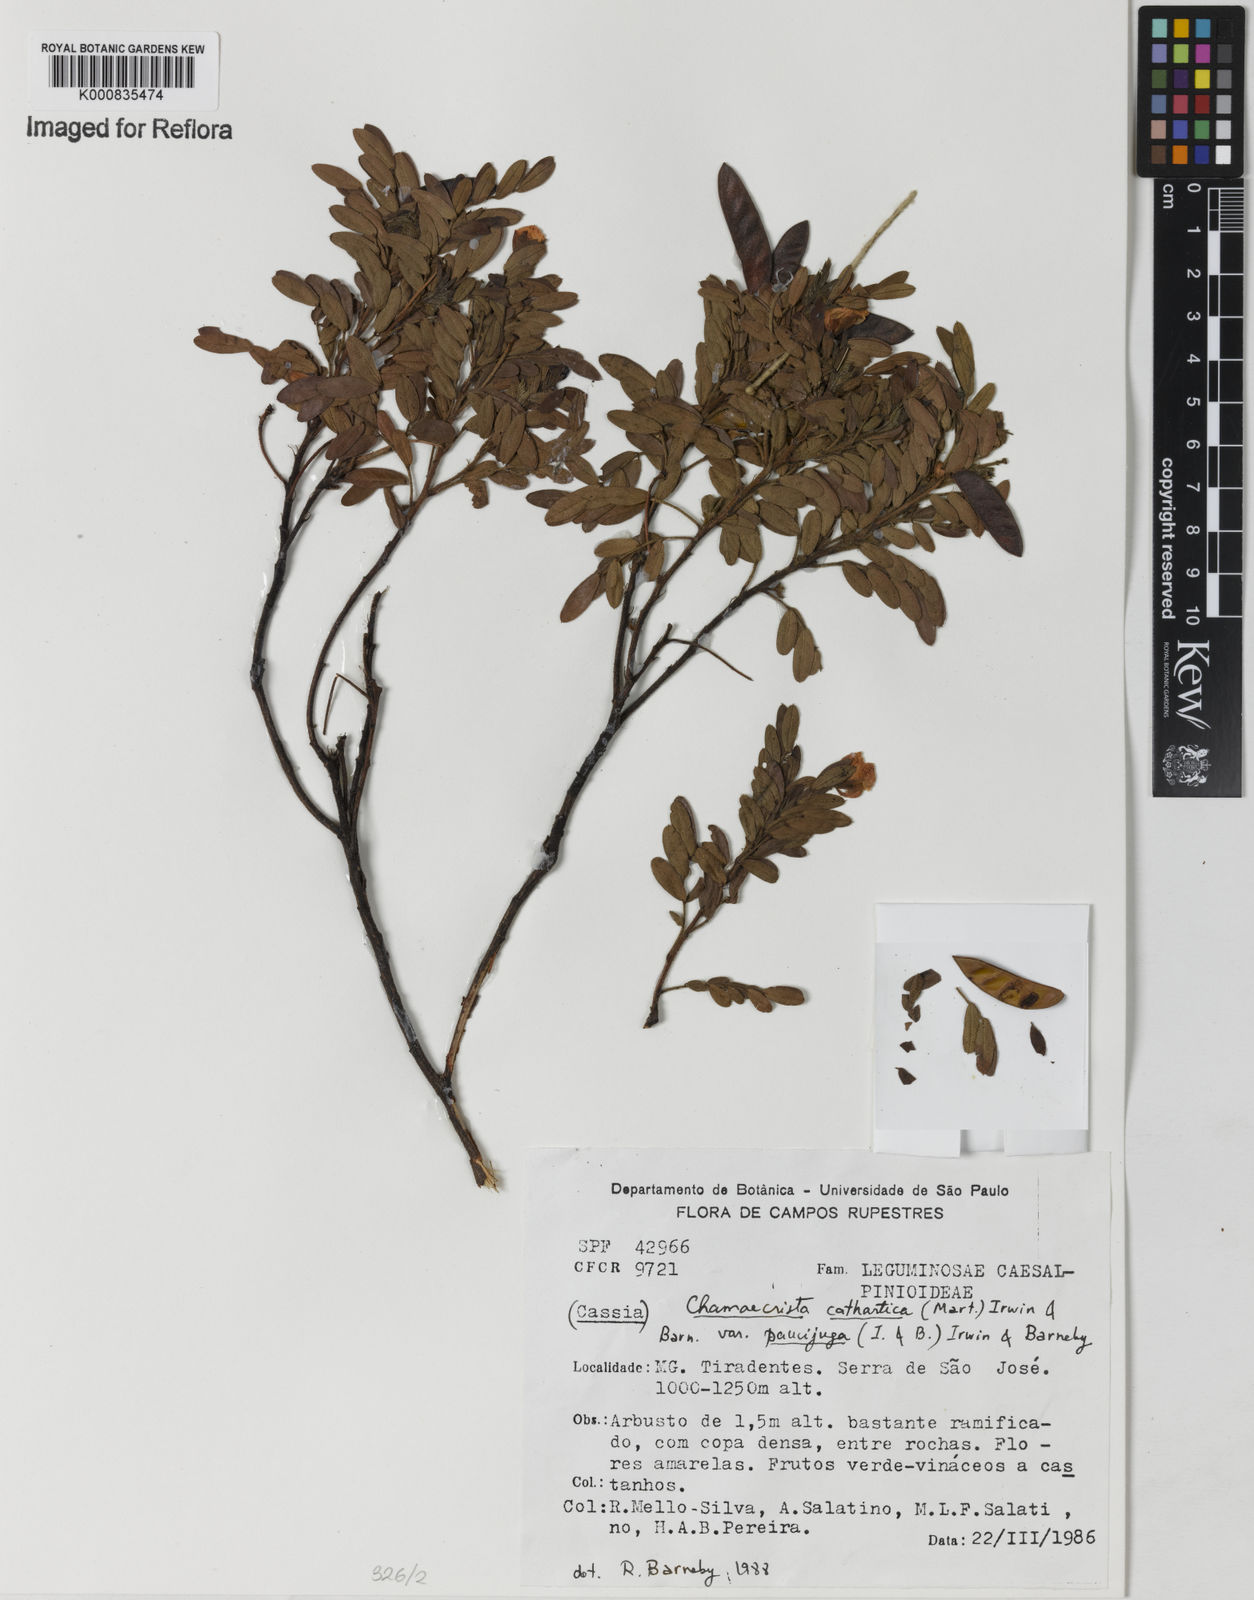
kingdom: Plantae
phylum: Tracheophyta
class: Magnoliopsida
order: Fabales
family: Fabaceae
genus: Chamaecrista
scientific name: Chamaecrista cathartica
